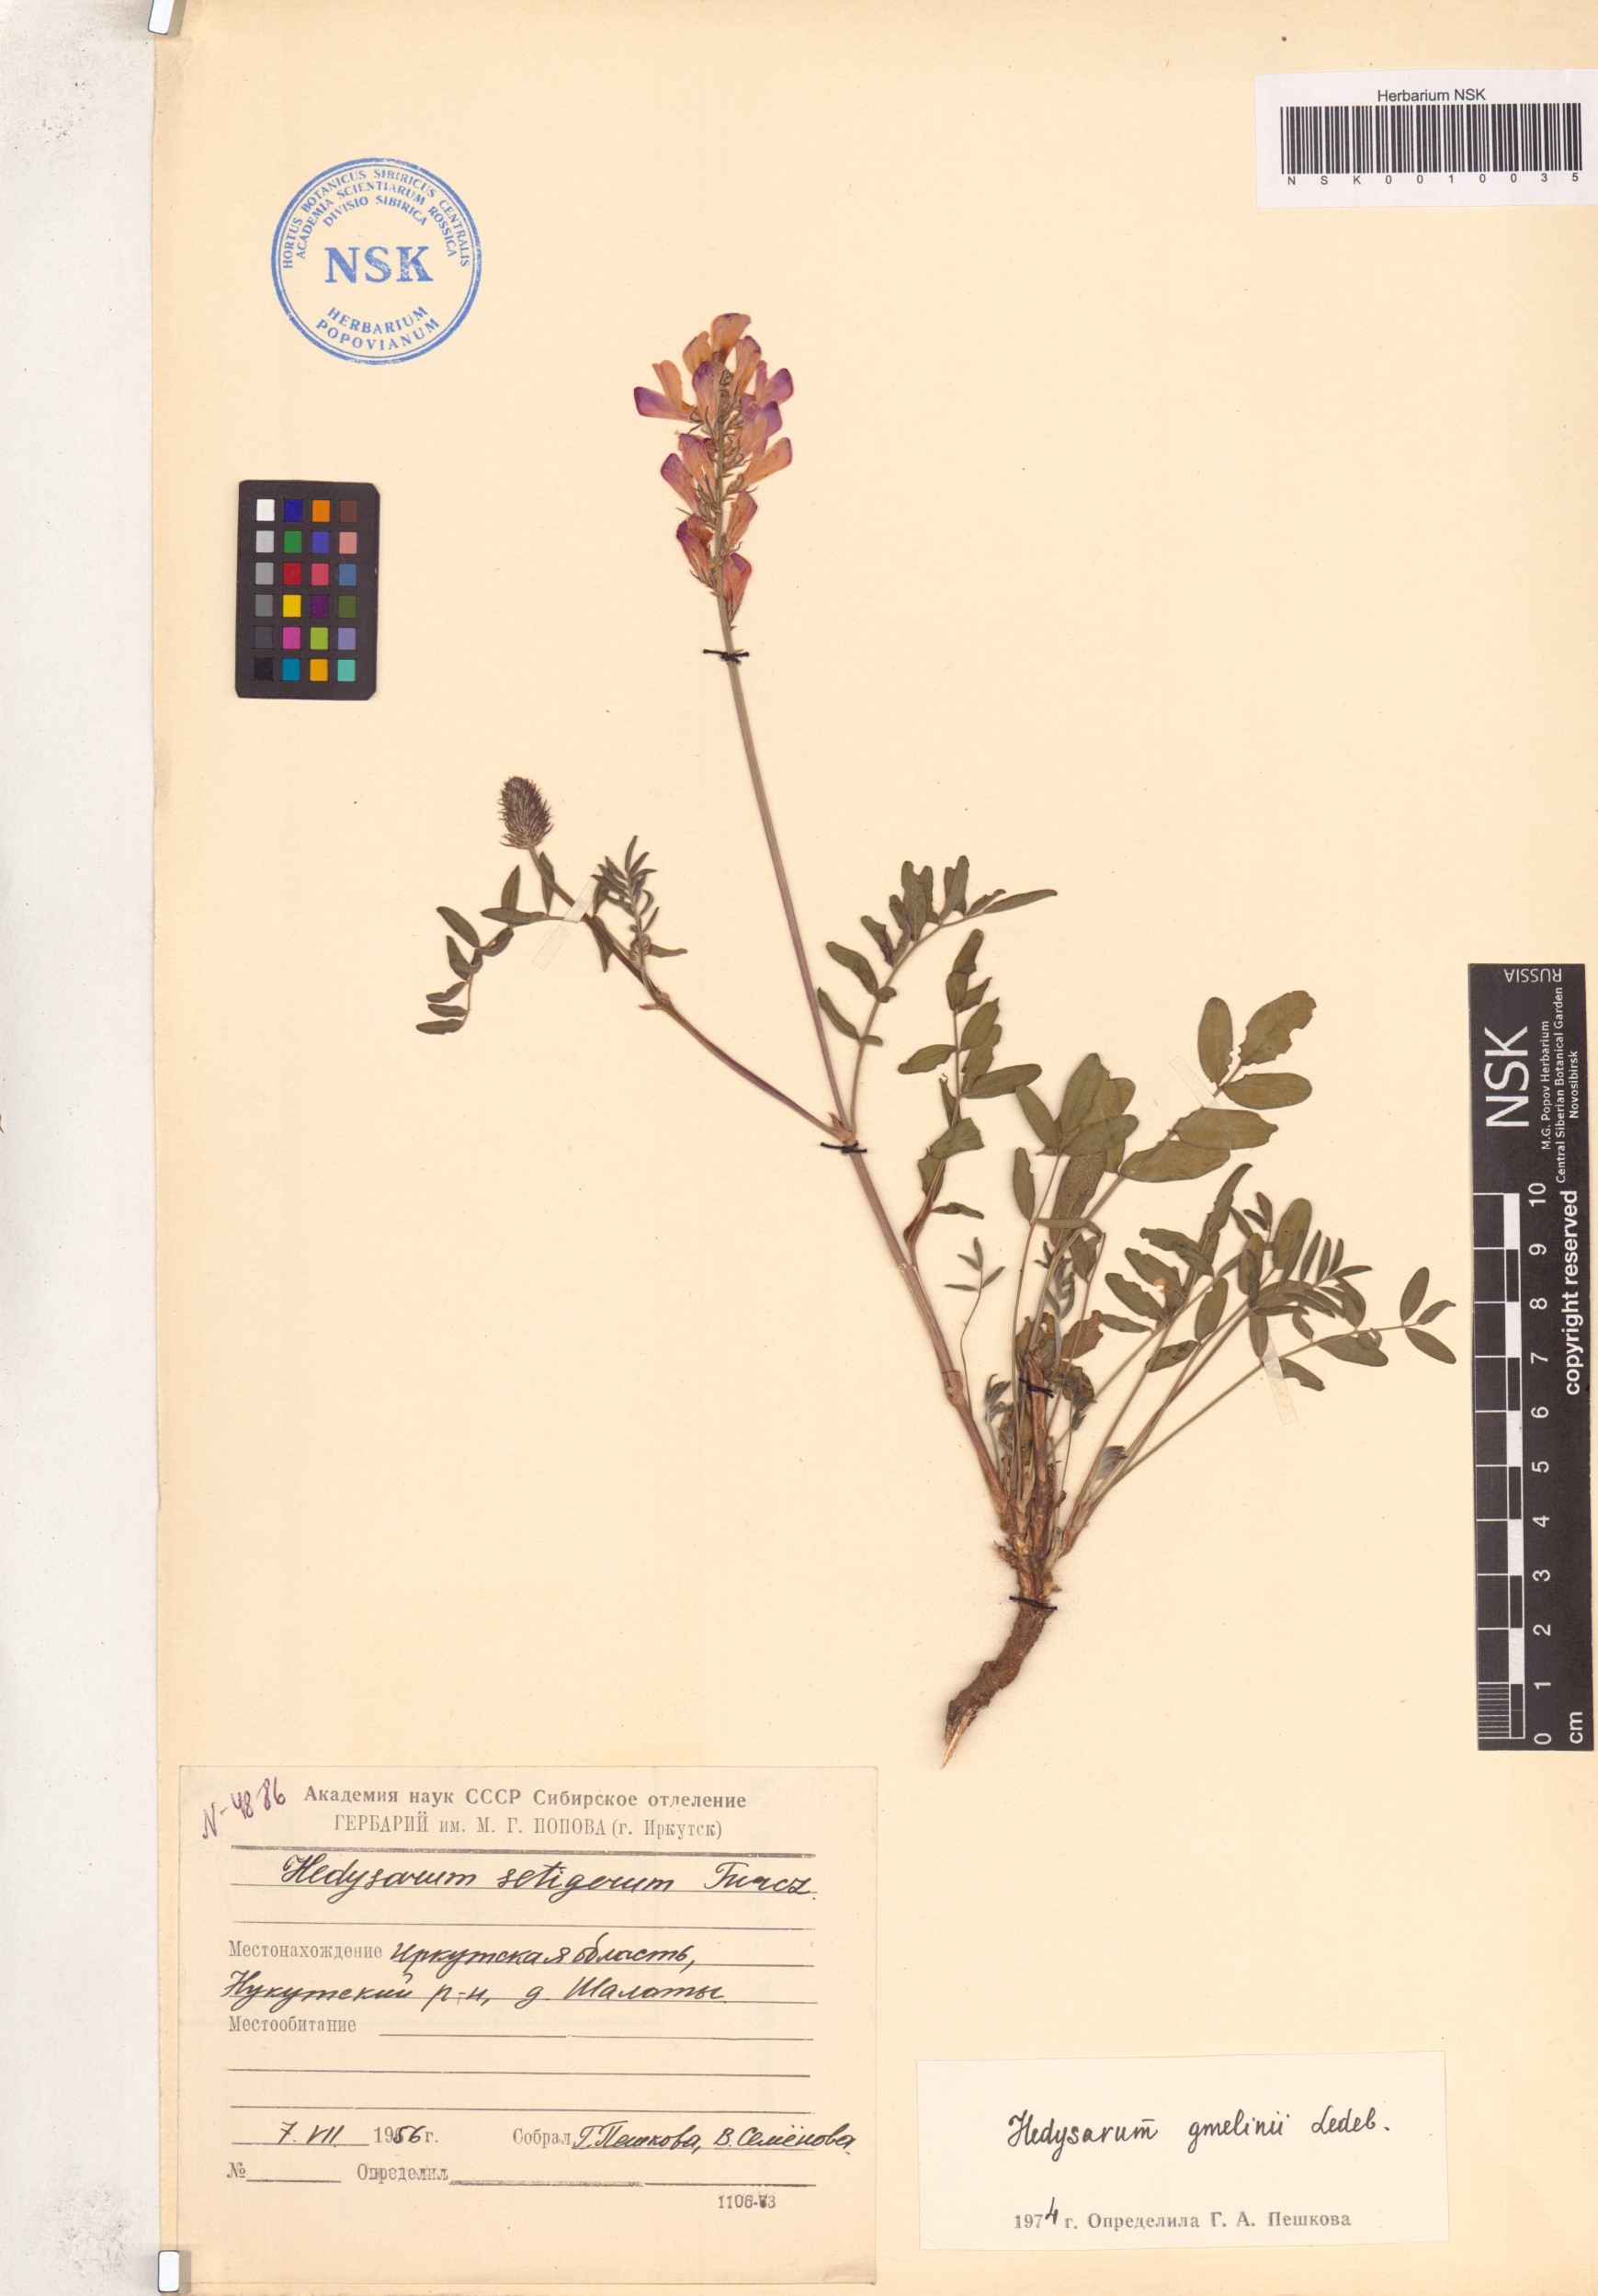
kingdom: Plantae
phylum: Tracheophyta
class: Magnoliopsida
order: Fabales
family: Fabaceae
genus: Hedysarum
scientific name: Hedysarum gmelinii
